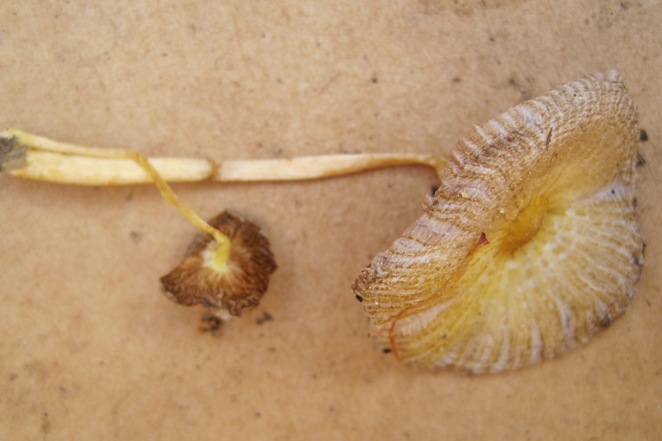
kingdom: Fungi
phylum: Basidiomycota
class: Agaricomycetes
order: Agaricales
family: Bolbitiaceae
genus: Bolbitius
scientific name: Bolbitius titubans
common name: almindelig gulhat
